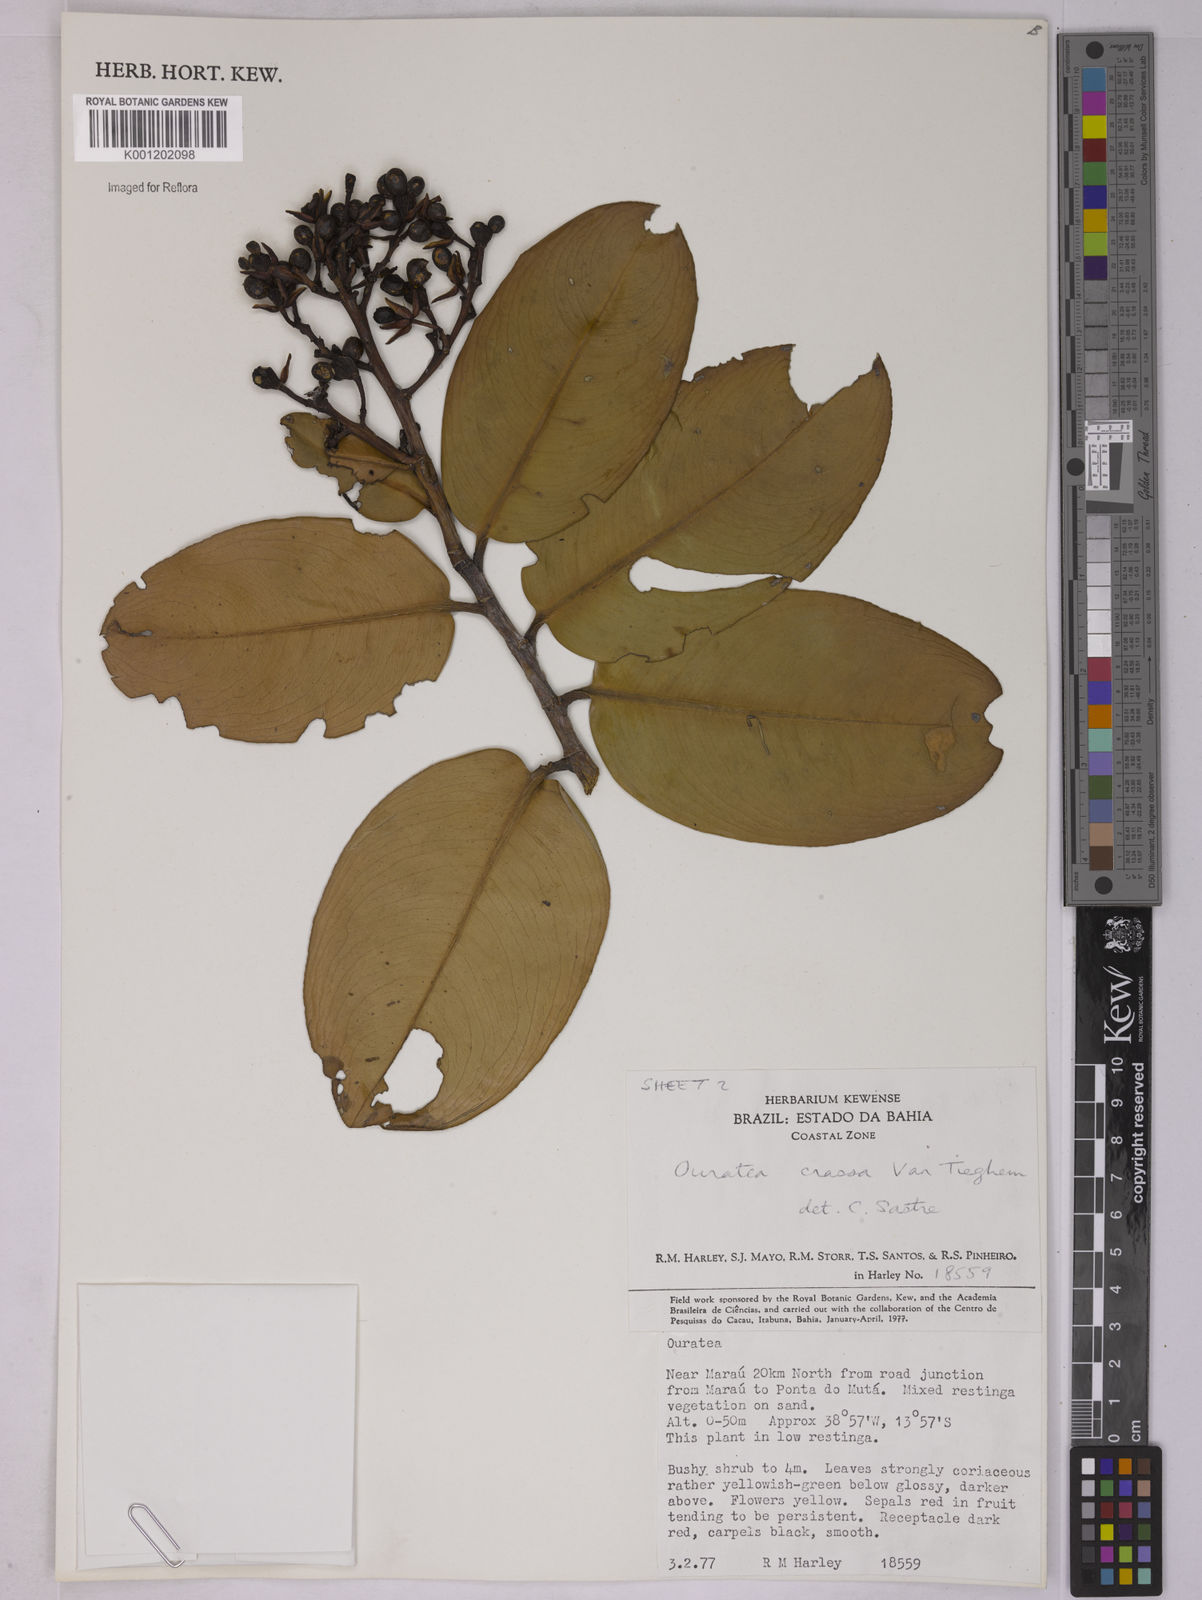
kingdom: Plantae
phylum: Tracheophyta
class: Magnoliopsida
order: Malpighiales
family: Ochnaceae
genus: Ouratea
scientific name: Ouratea crassa
